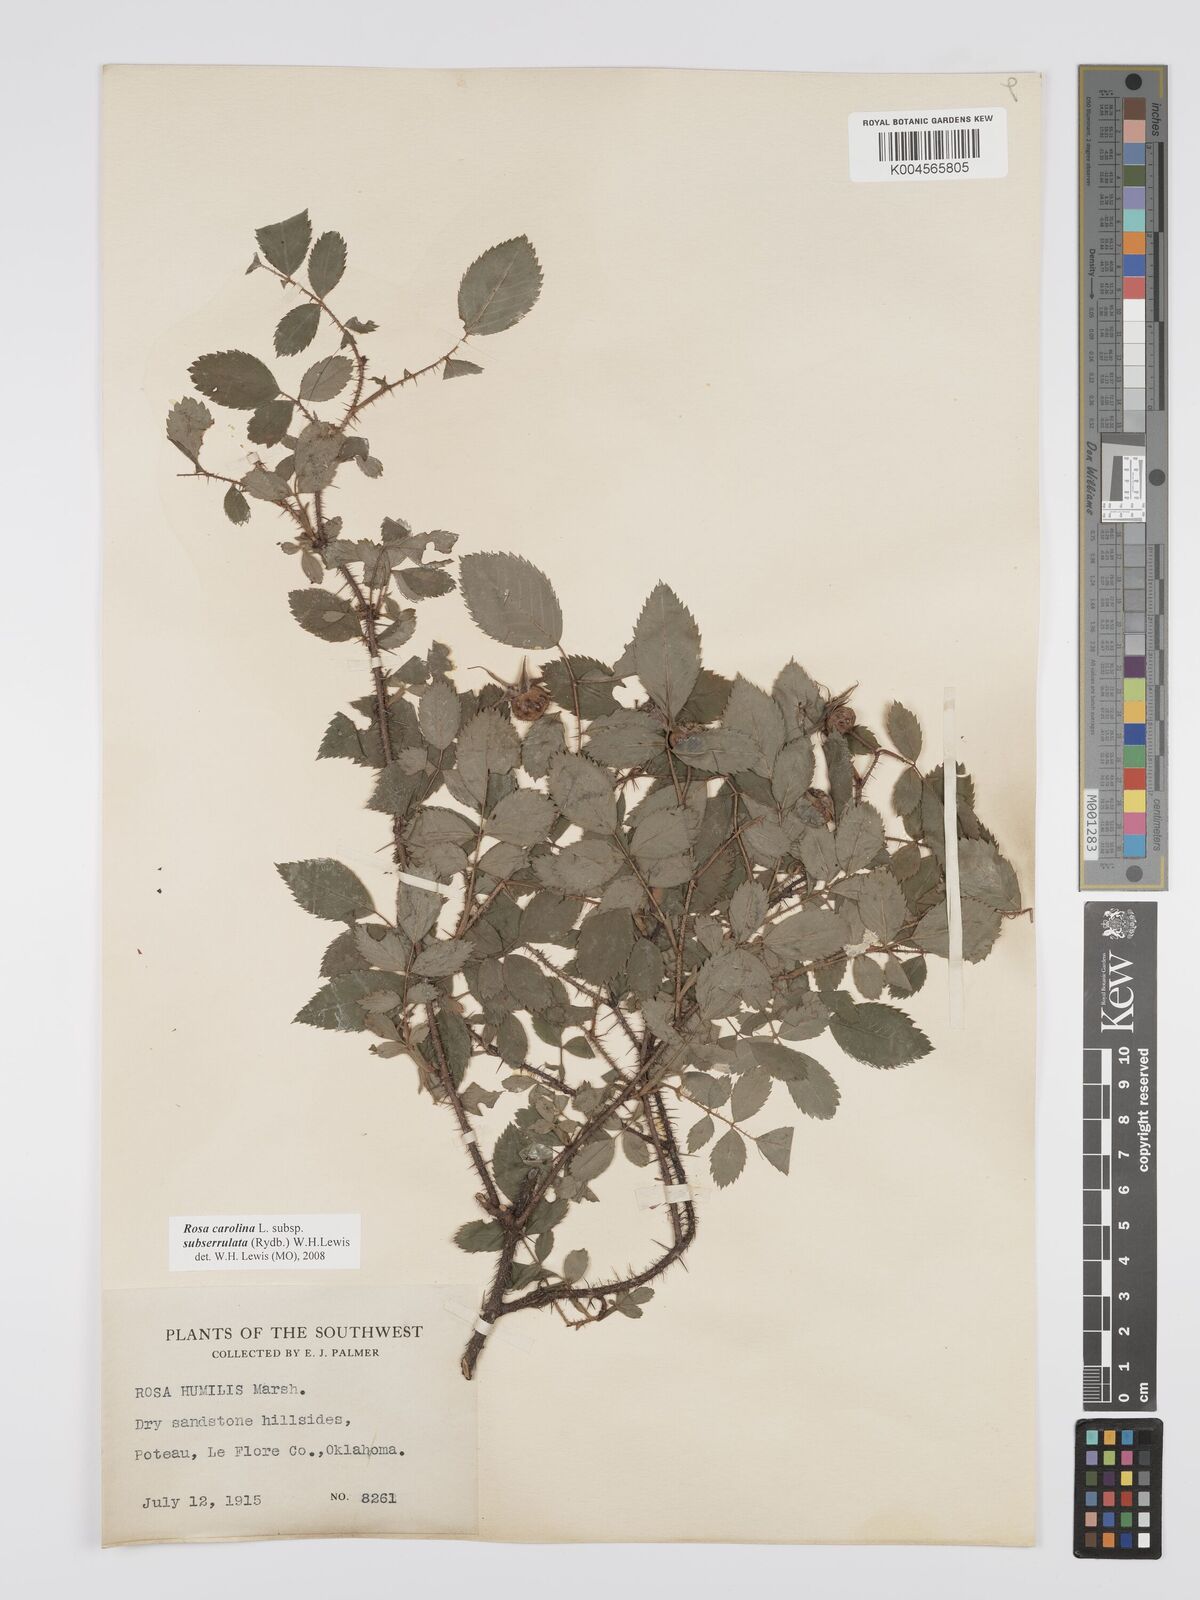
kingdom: Plantae
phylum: Tracheophyta
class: Magnoliopsida
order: Rosales
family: Rosaceae
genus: Rosa
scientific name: Rosa carolina
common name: Pasture rose
